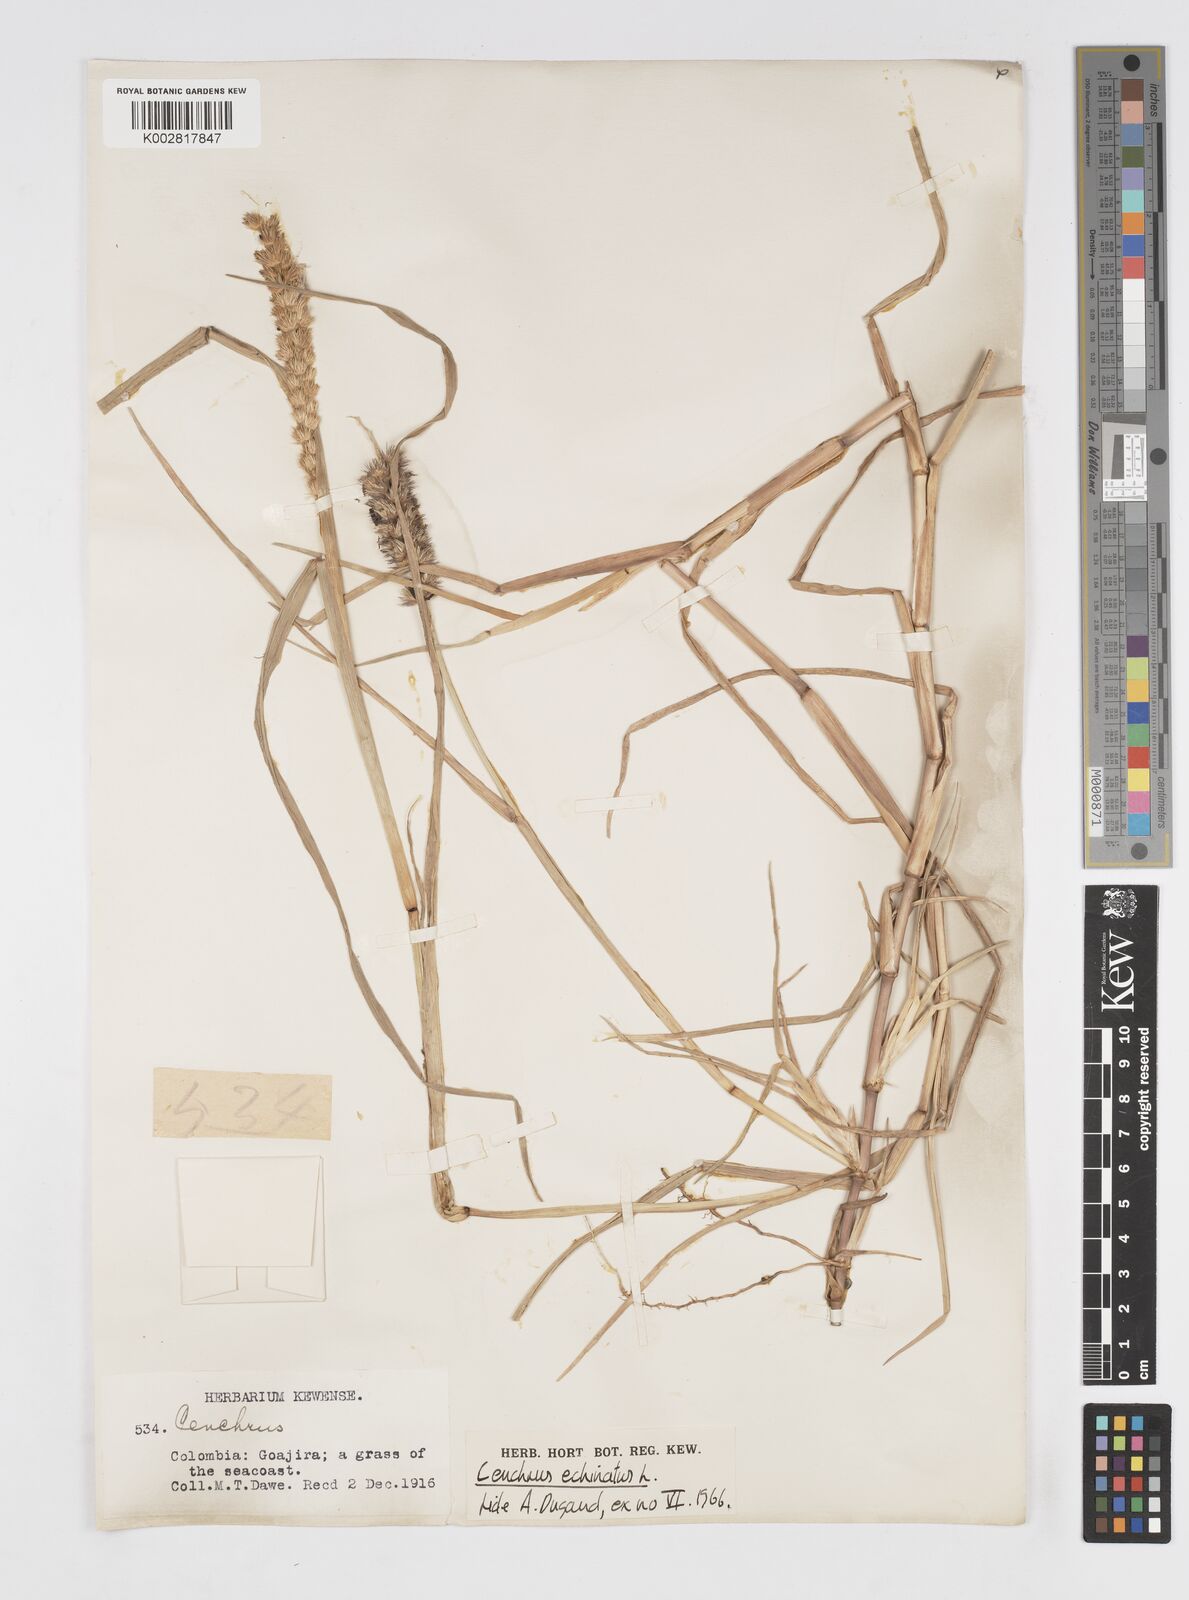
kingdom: Plantae
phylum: Tracheophyta
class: Liliopsida
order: Poales
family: Poaceae
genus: Cenchrus
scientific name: Cenchrus echinatus
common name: Southern sandbur
